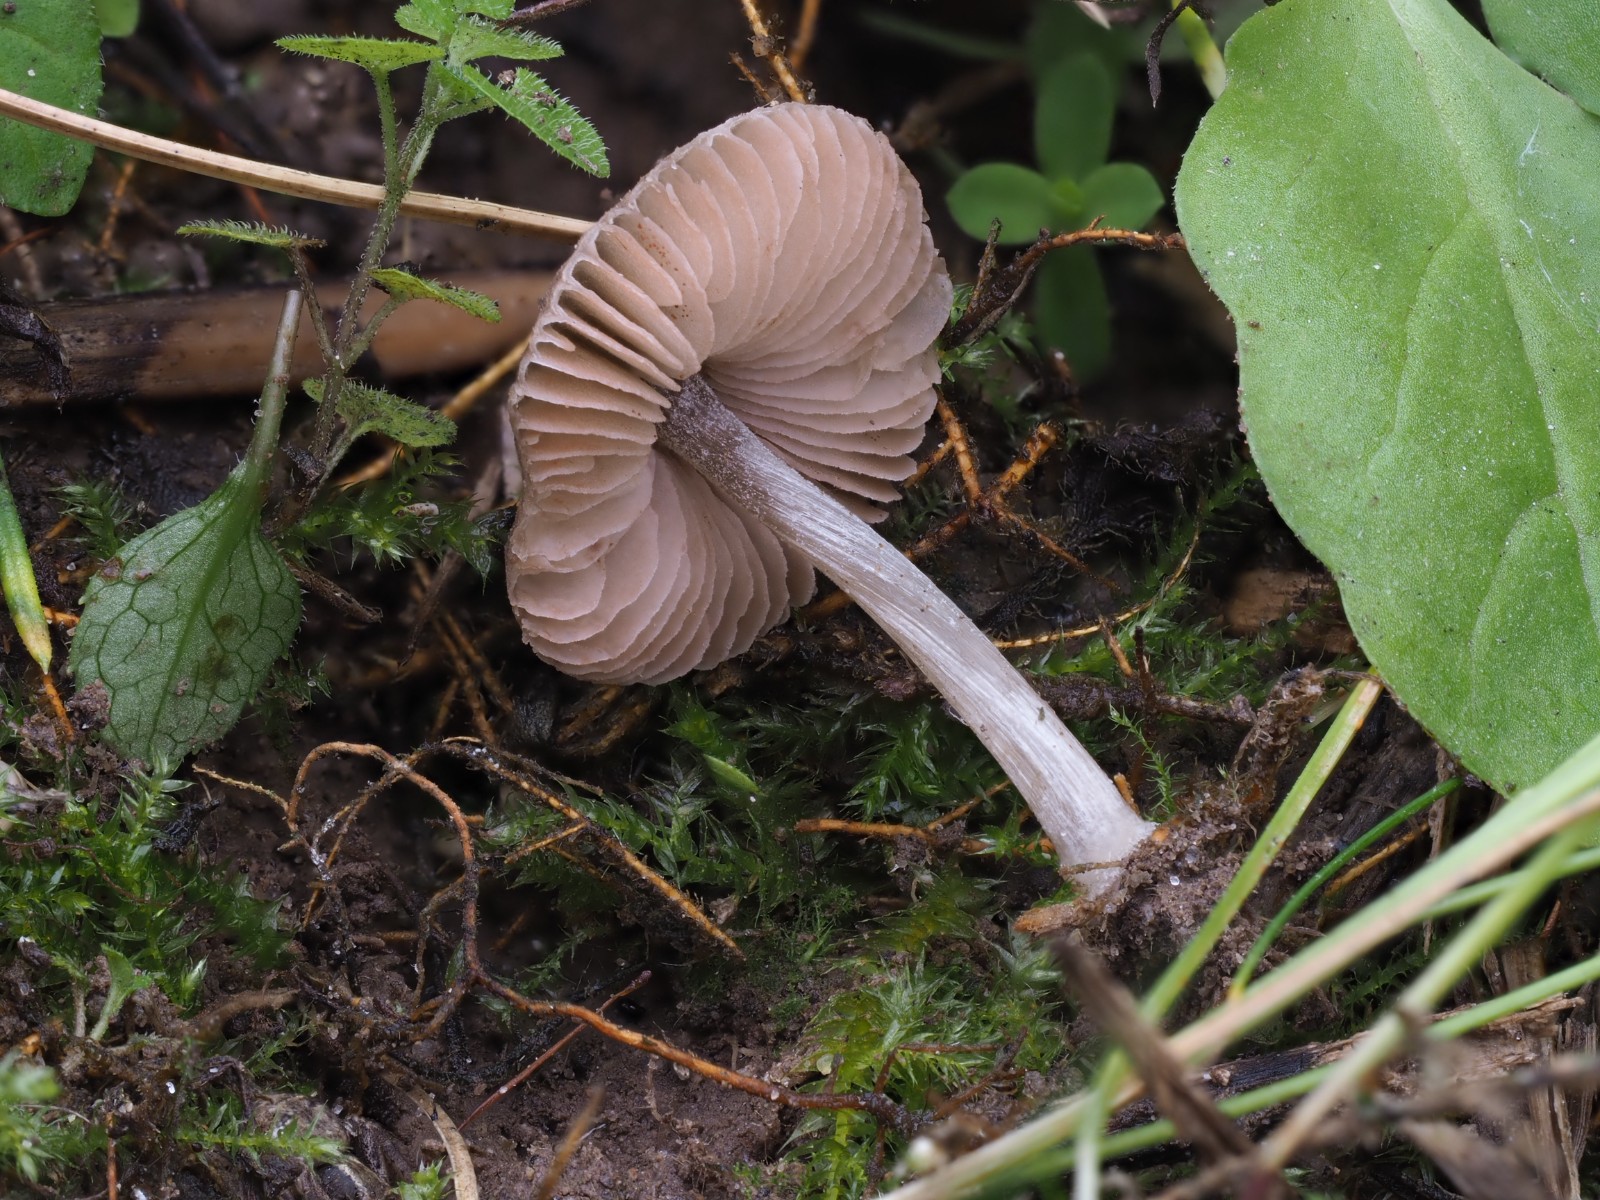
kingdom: Fungi
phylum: Basidiomycota
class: Agaricomycetes
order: Agaricales
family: Pluteaceae
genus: Pluteus
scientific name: Pluteus
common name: gråstokket skærmhat
